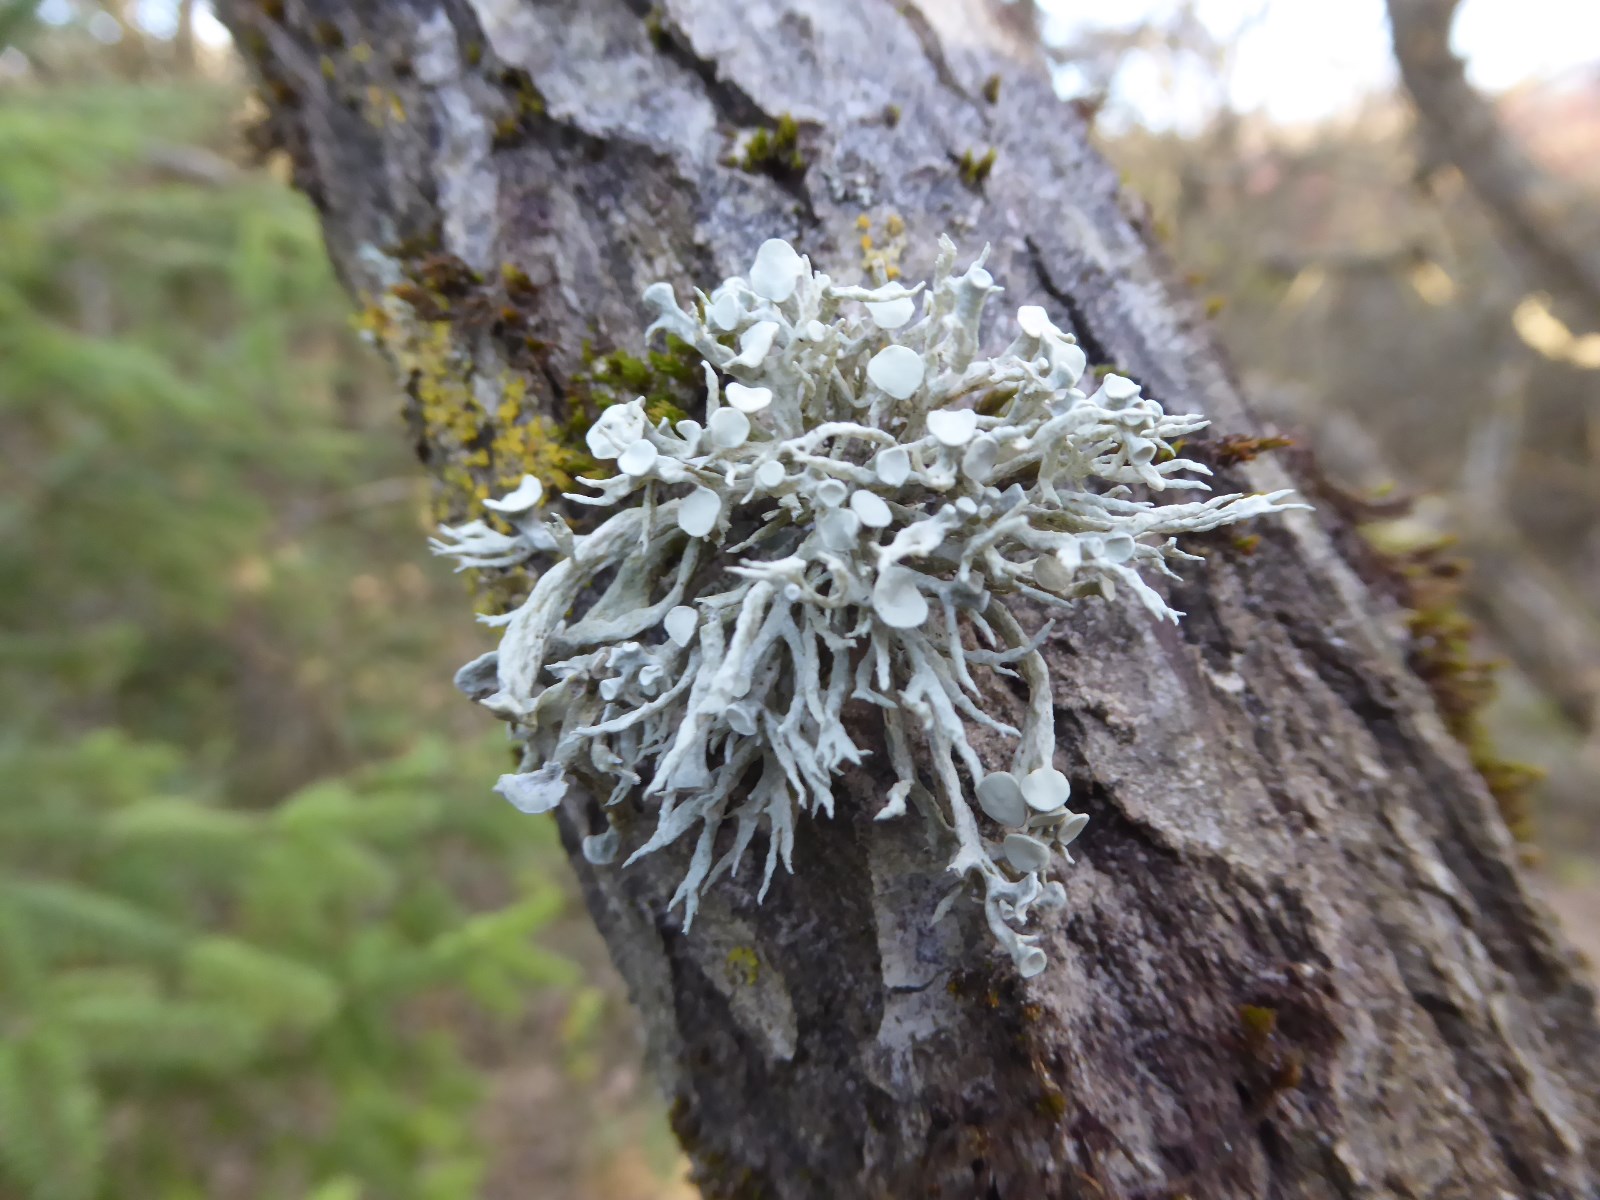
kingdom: Fungi
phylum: Ascomycota
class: Lecanoromycetes
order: Lecanorales
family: Ramalinaceae
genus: Ramalina
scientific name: Ramalina fastigiata
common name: tue-grenlav
